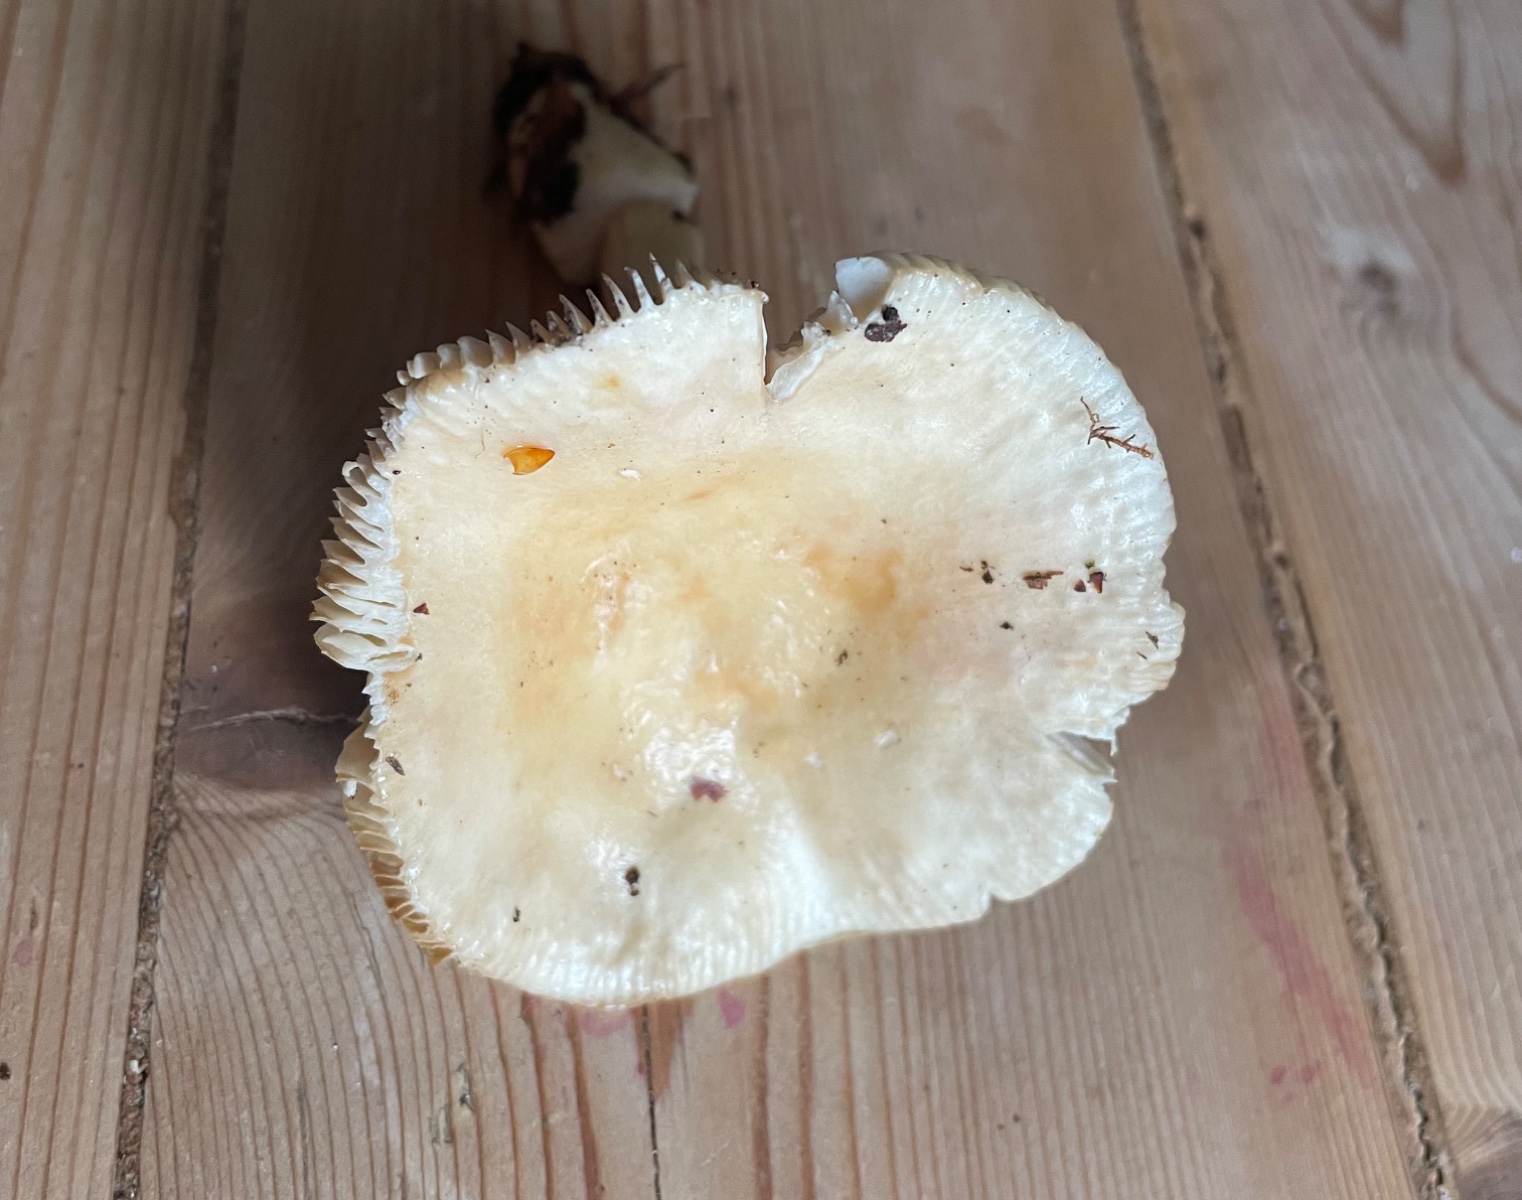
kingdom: Fungi
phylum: Basidiomycota
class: Agaricomycetes
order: Russulales
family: Russulaceae
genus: Russula
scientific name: Russula farinipes
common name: gul kam-skørhat
